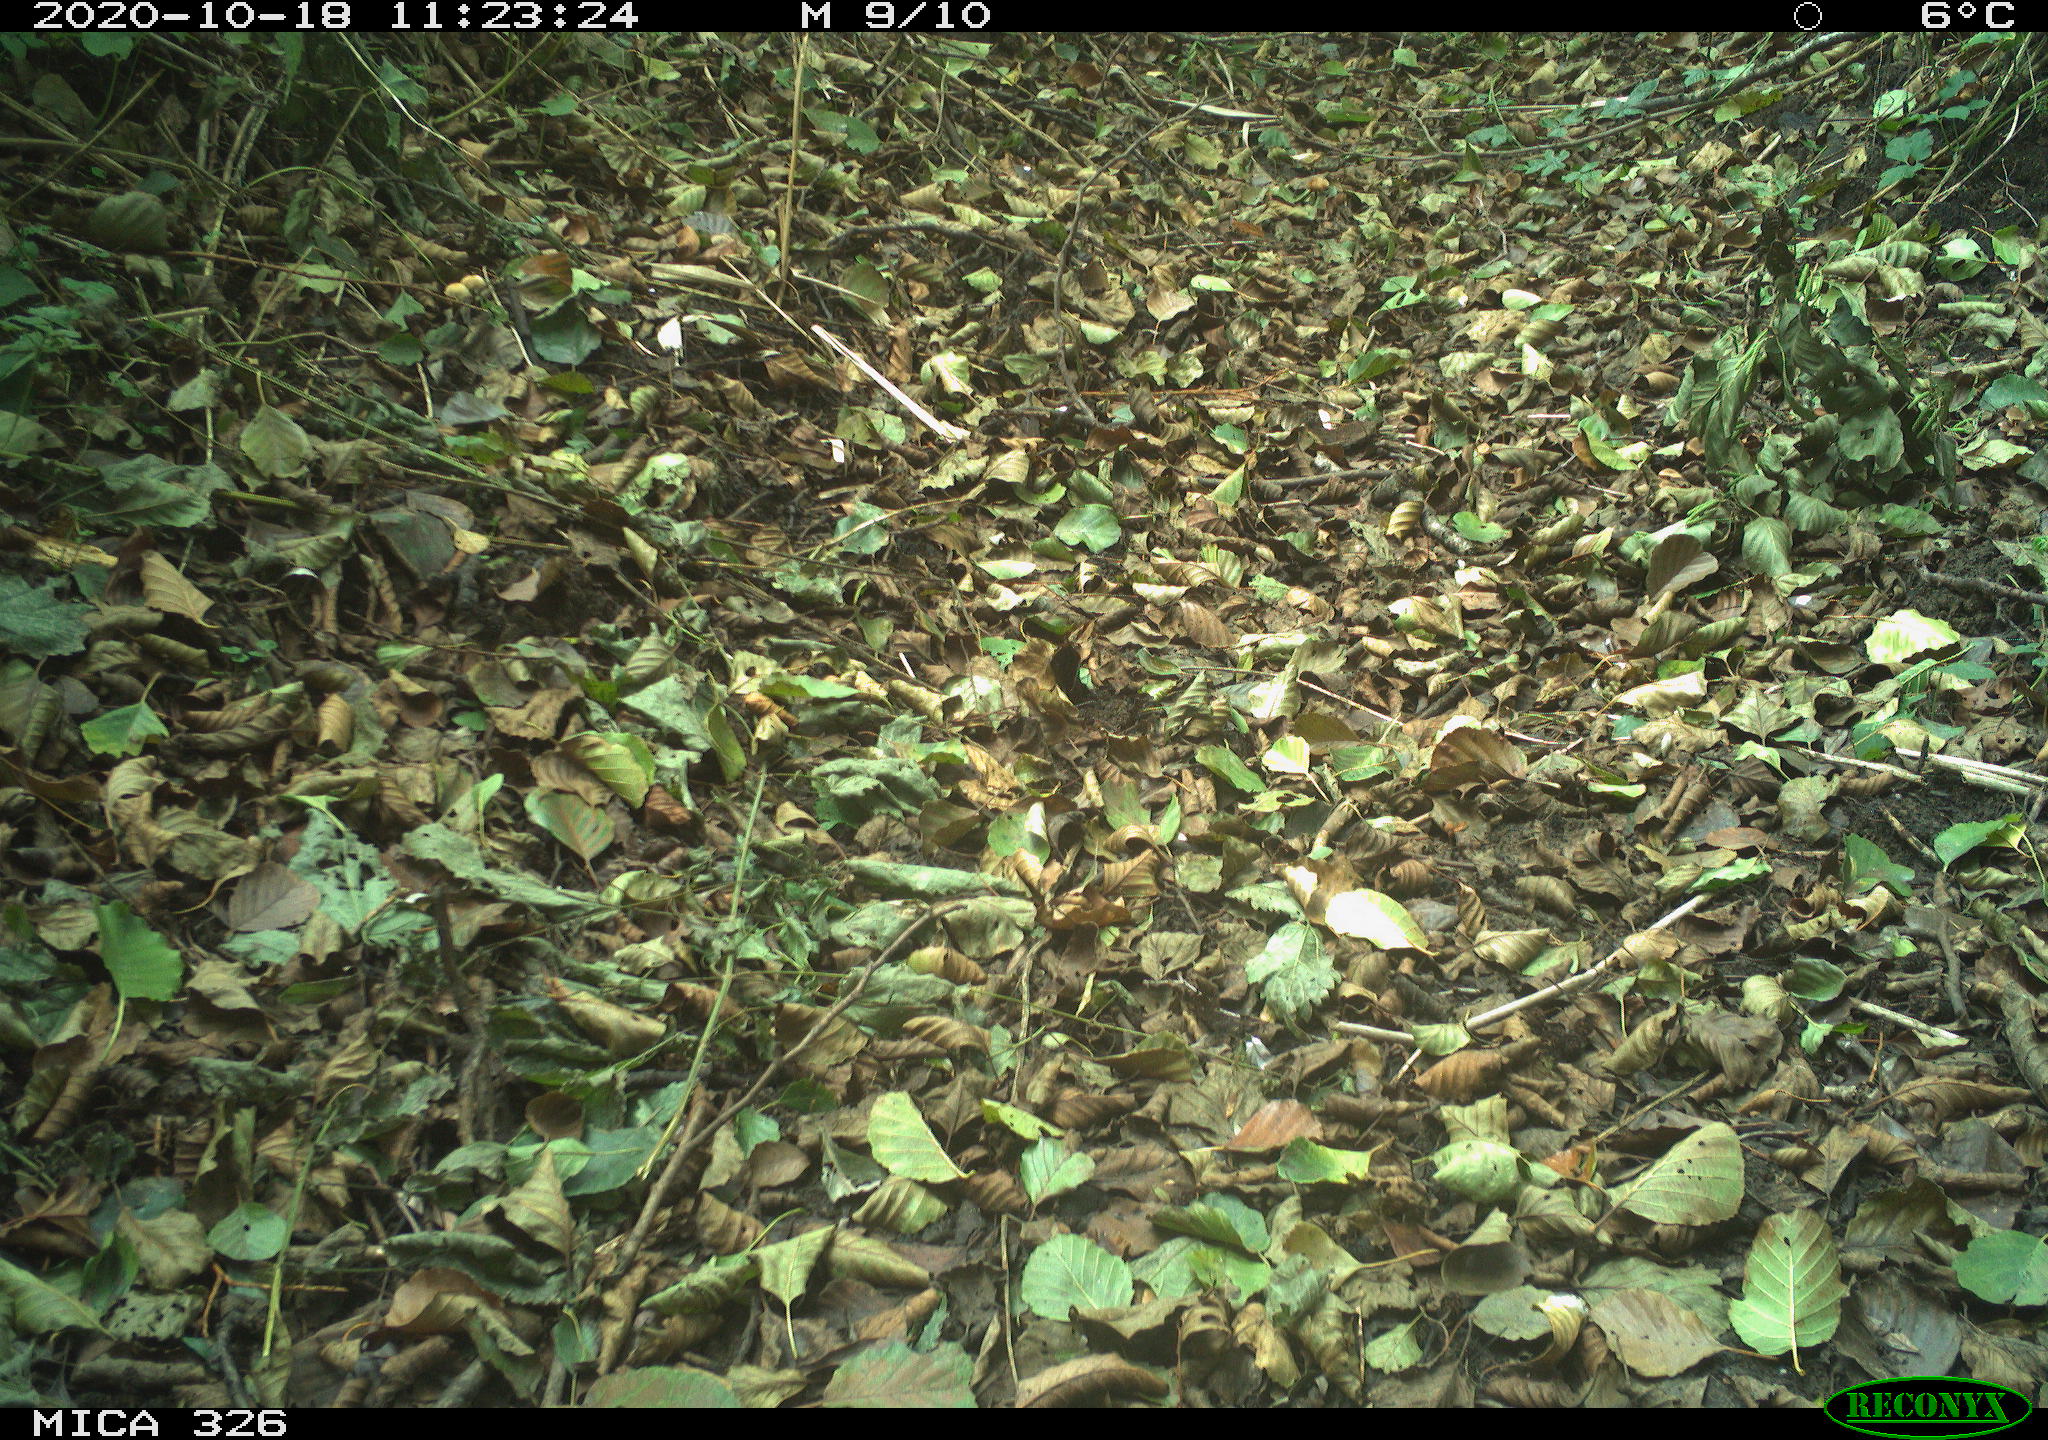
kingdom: Animalia
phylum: Chordata
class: Aves
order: Passeriformes
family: Paridae
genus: Parus
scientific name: Parus major
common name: Great tit
